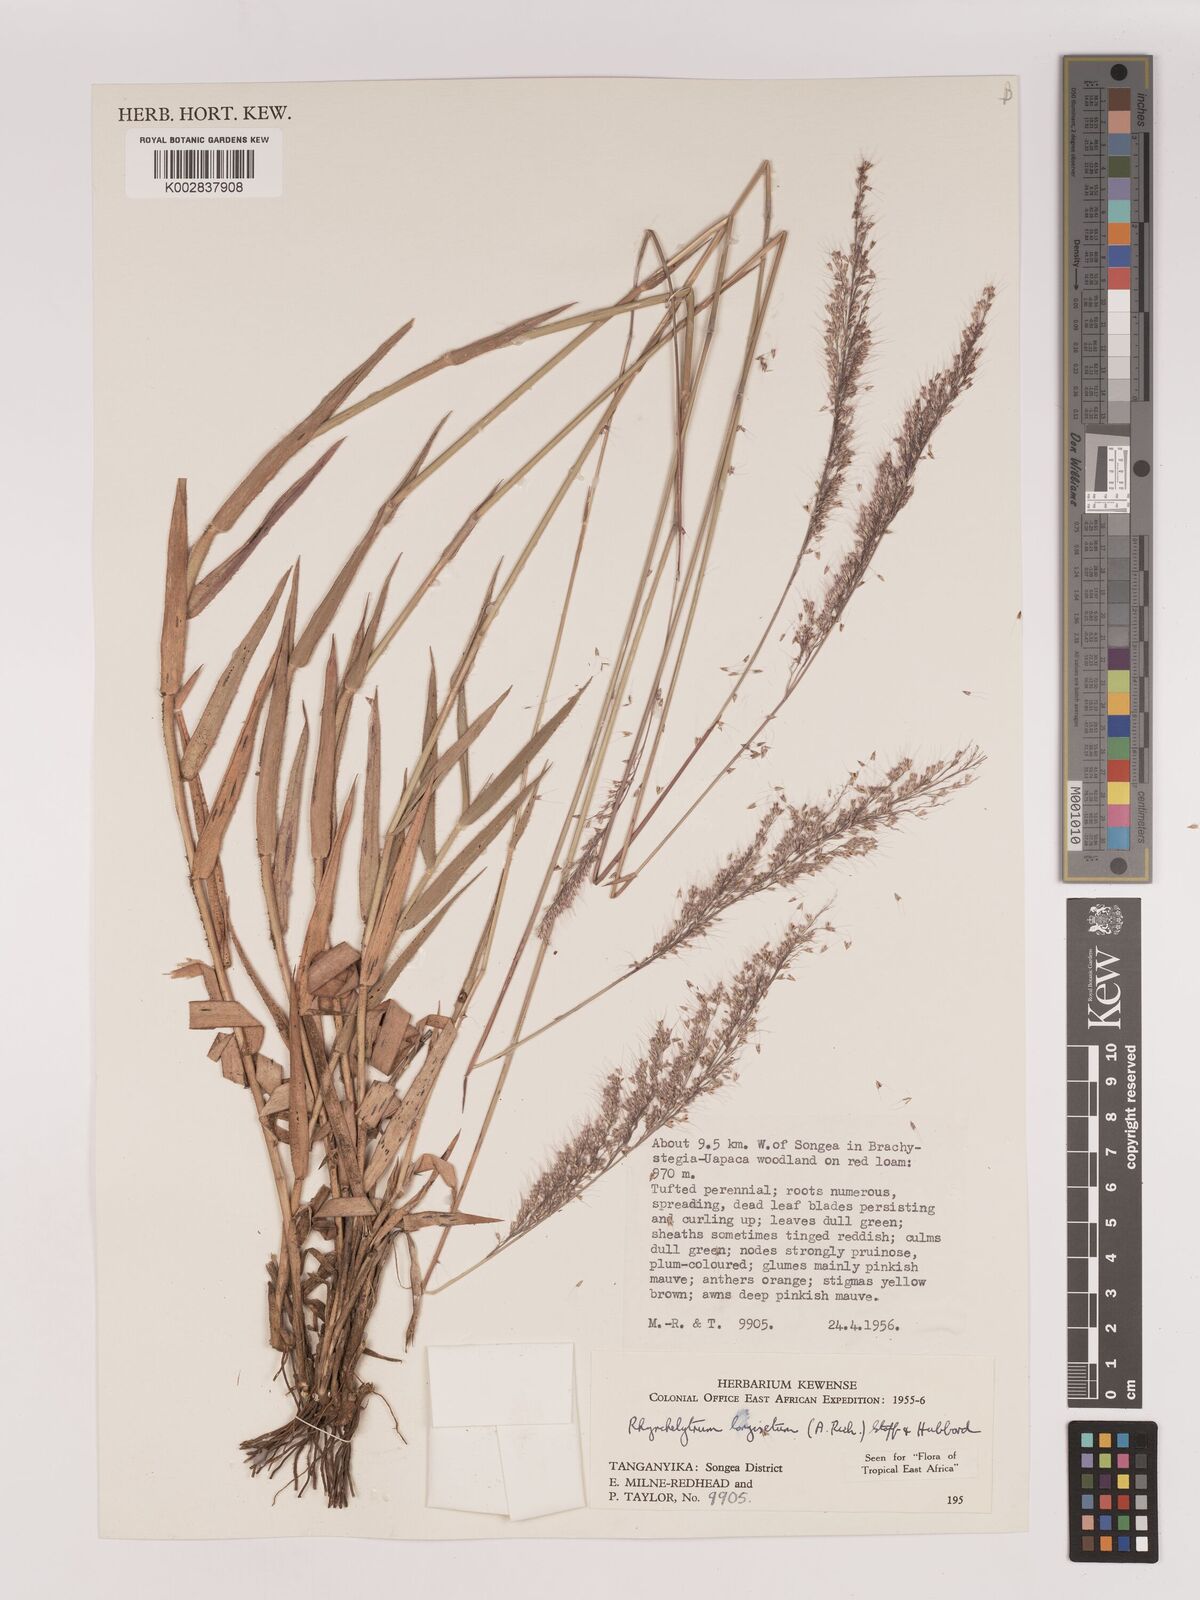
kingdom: Plantae
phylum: Tracheophyta
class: Liliopsida
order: Poales
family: Poaceae
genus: Melinis
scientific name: Melinis longiseta
